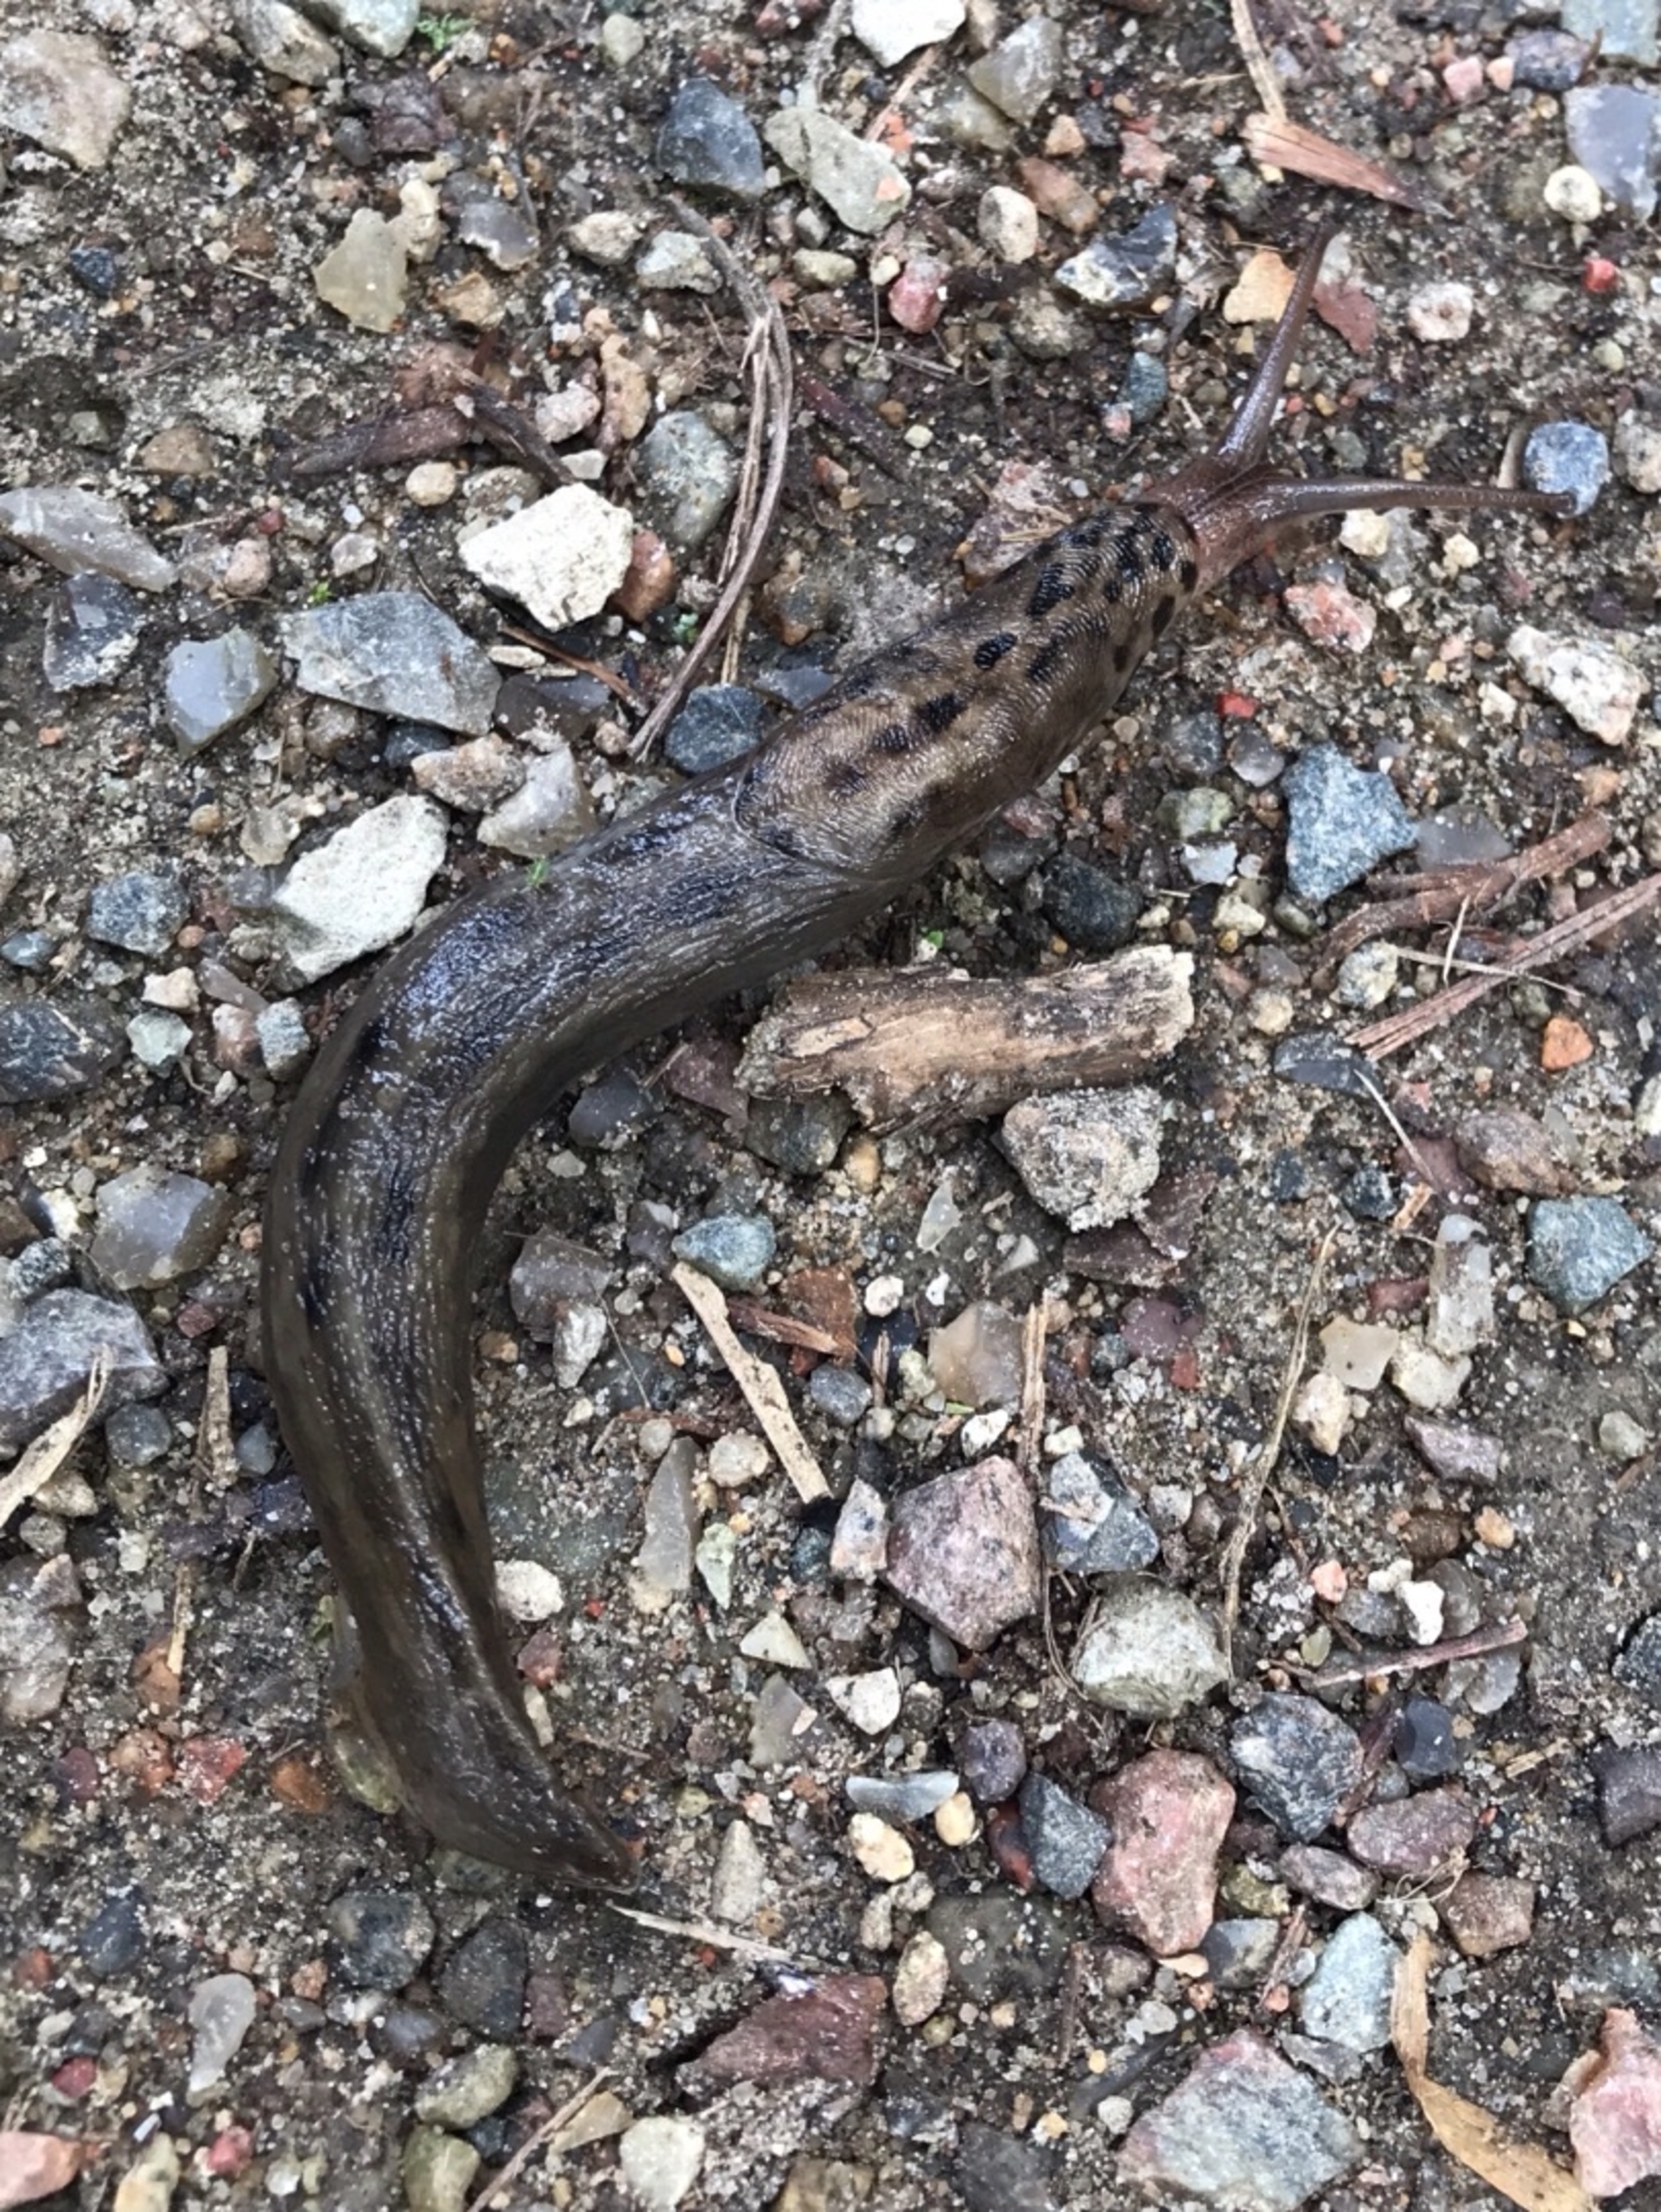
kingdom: Animalia
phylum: Mollusca
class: Gastropoda
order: Stylommatophora
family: Limacidae
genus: Limax
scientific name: Limax maximus
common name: Pantersnegl
